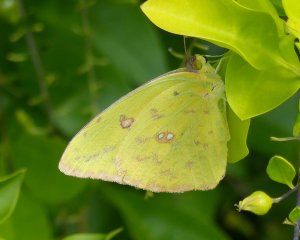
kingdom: Animalia
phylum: Arthropoda
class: Insecta
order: Lepidoptera
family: Pieridae
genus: Phoebis
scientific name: Phoebis sennae
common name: Cloudless Sulphur
